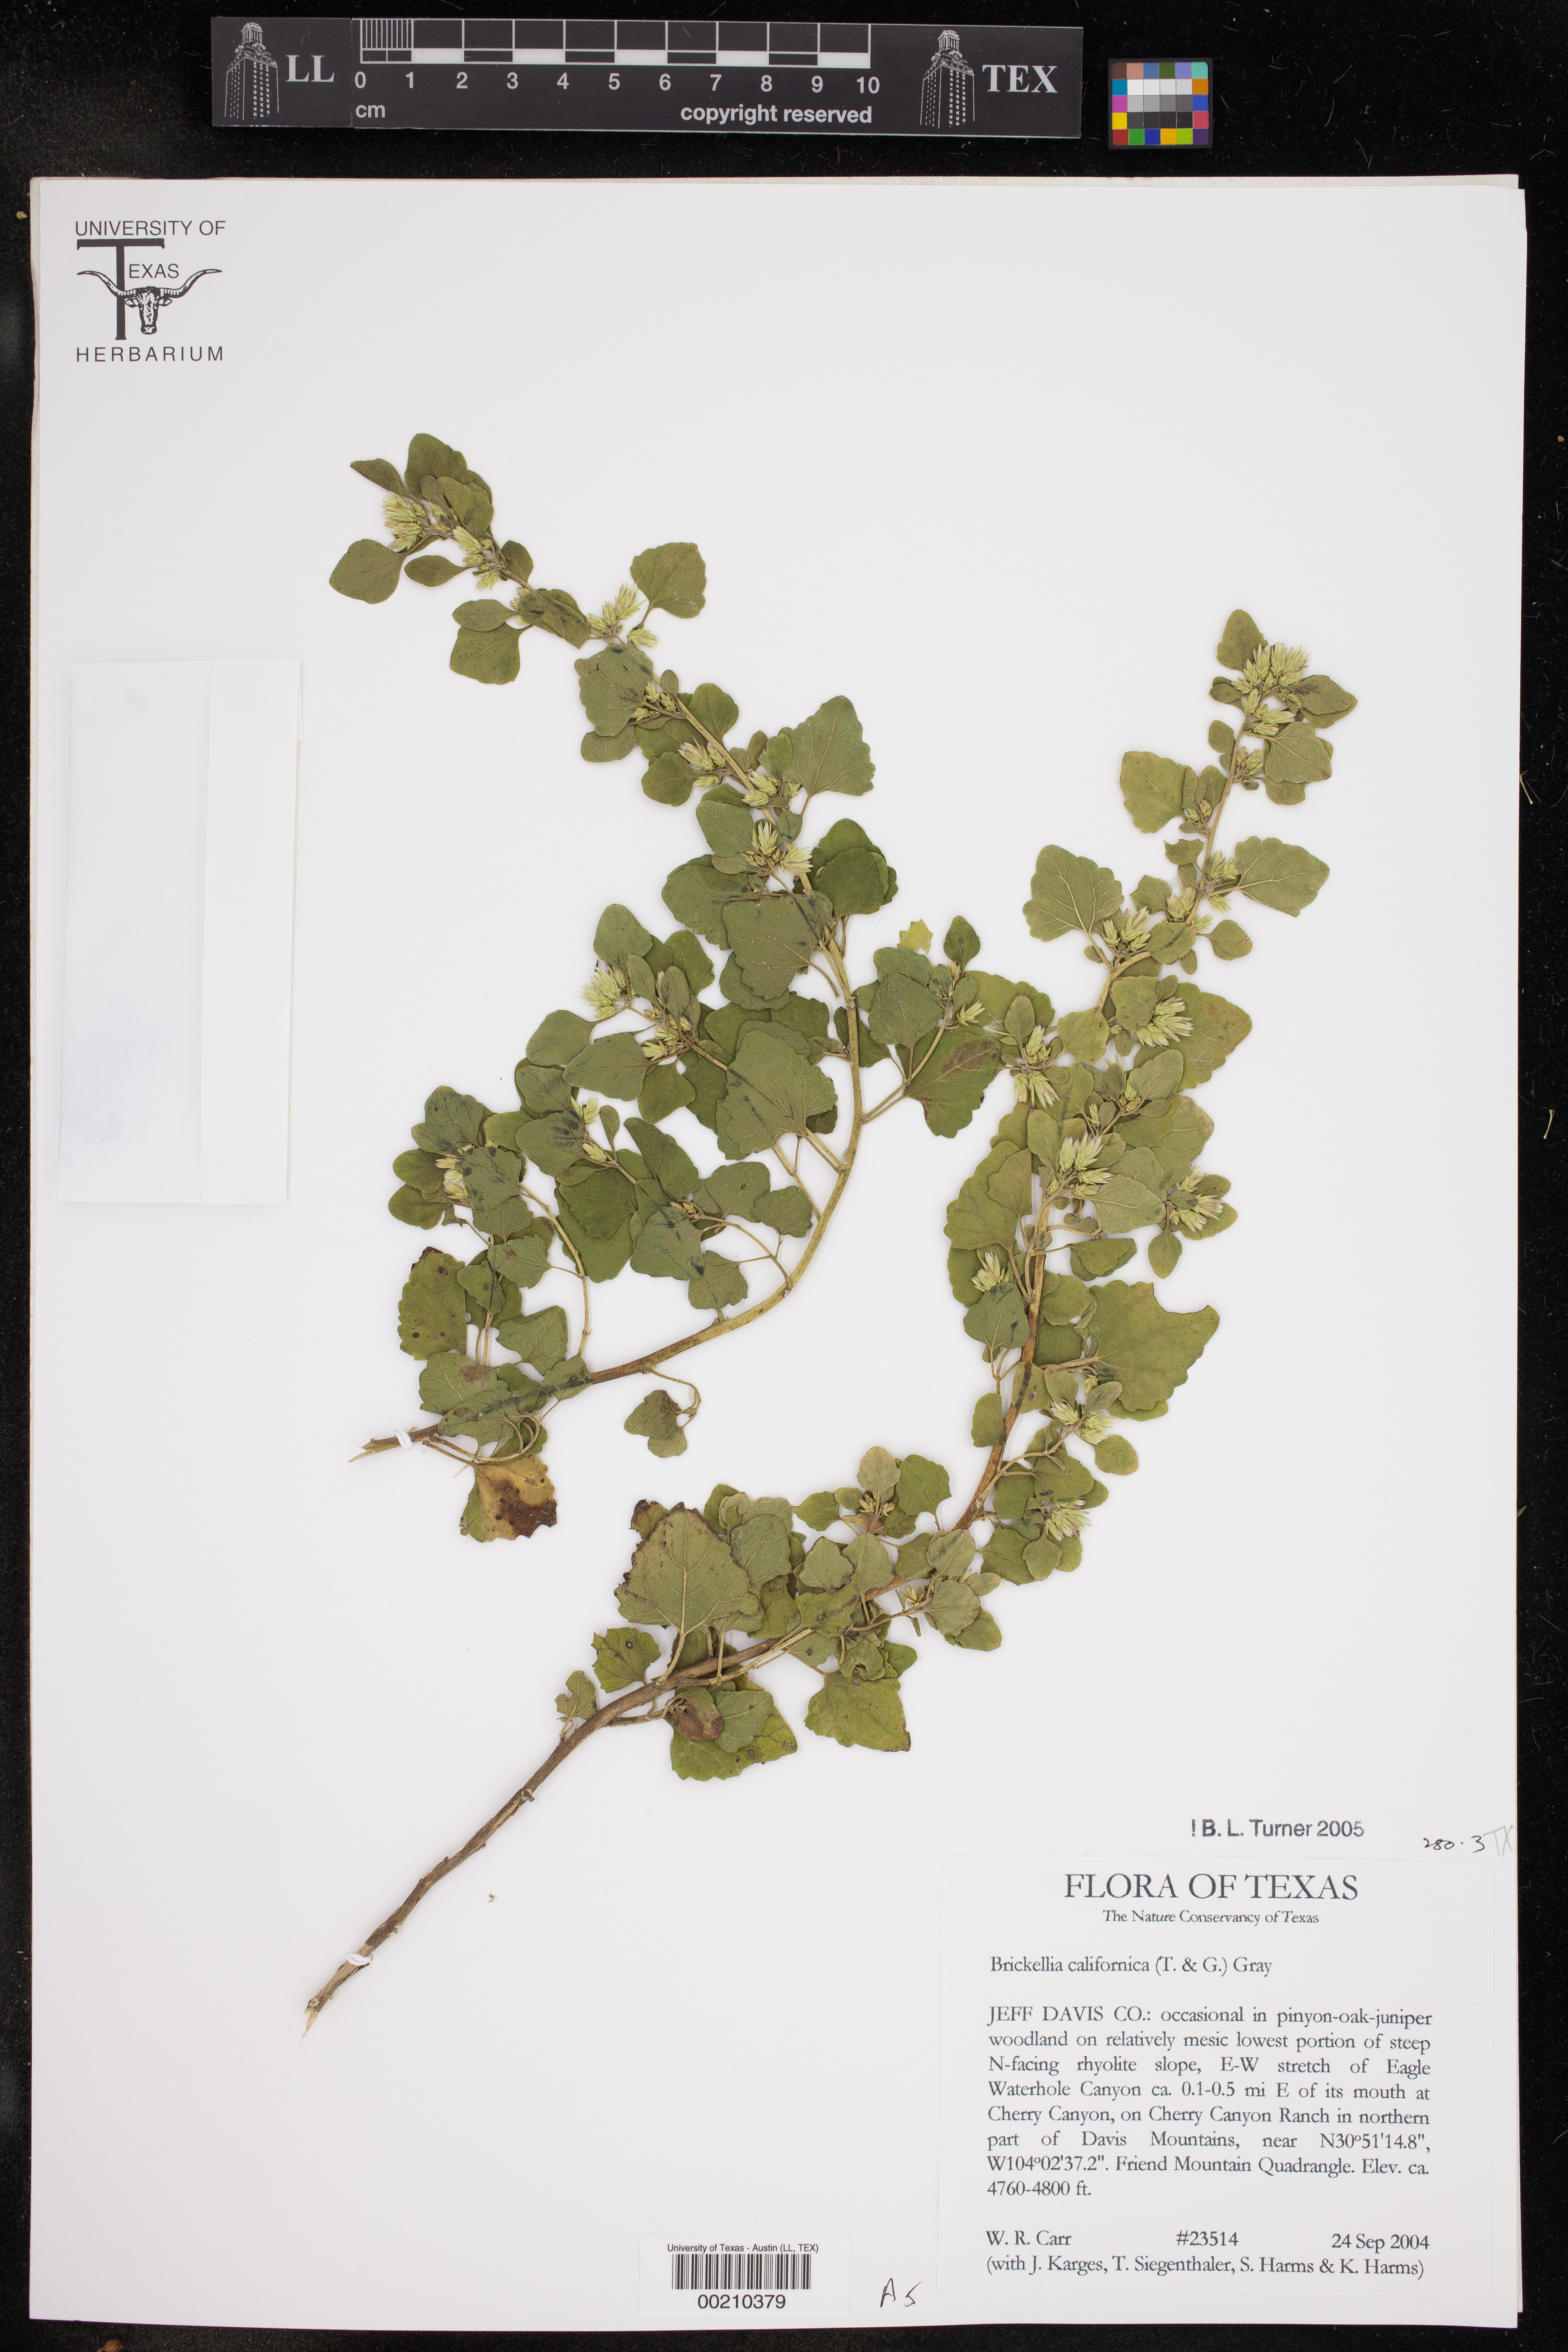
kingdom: Plantae
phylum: Tracheophyta
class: Magnoliopsida
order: Asterales
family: Asteraceae
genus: Brickellia
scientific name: Brickellia californica
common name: California brickellbush
